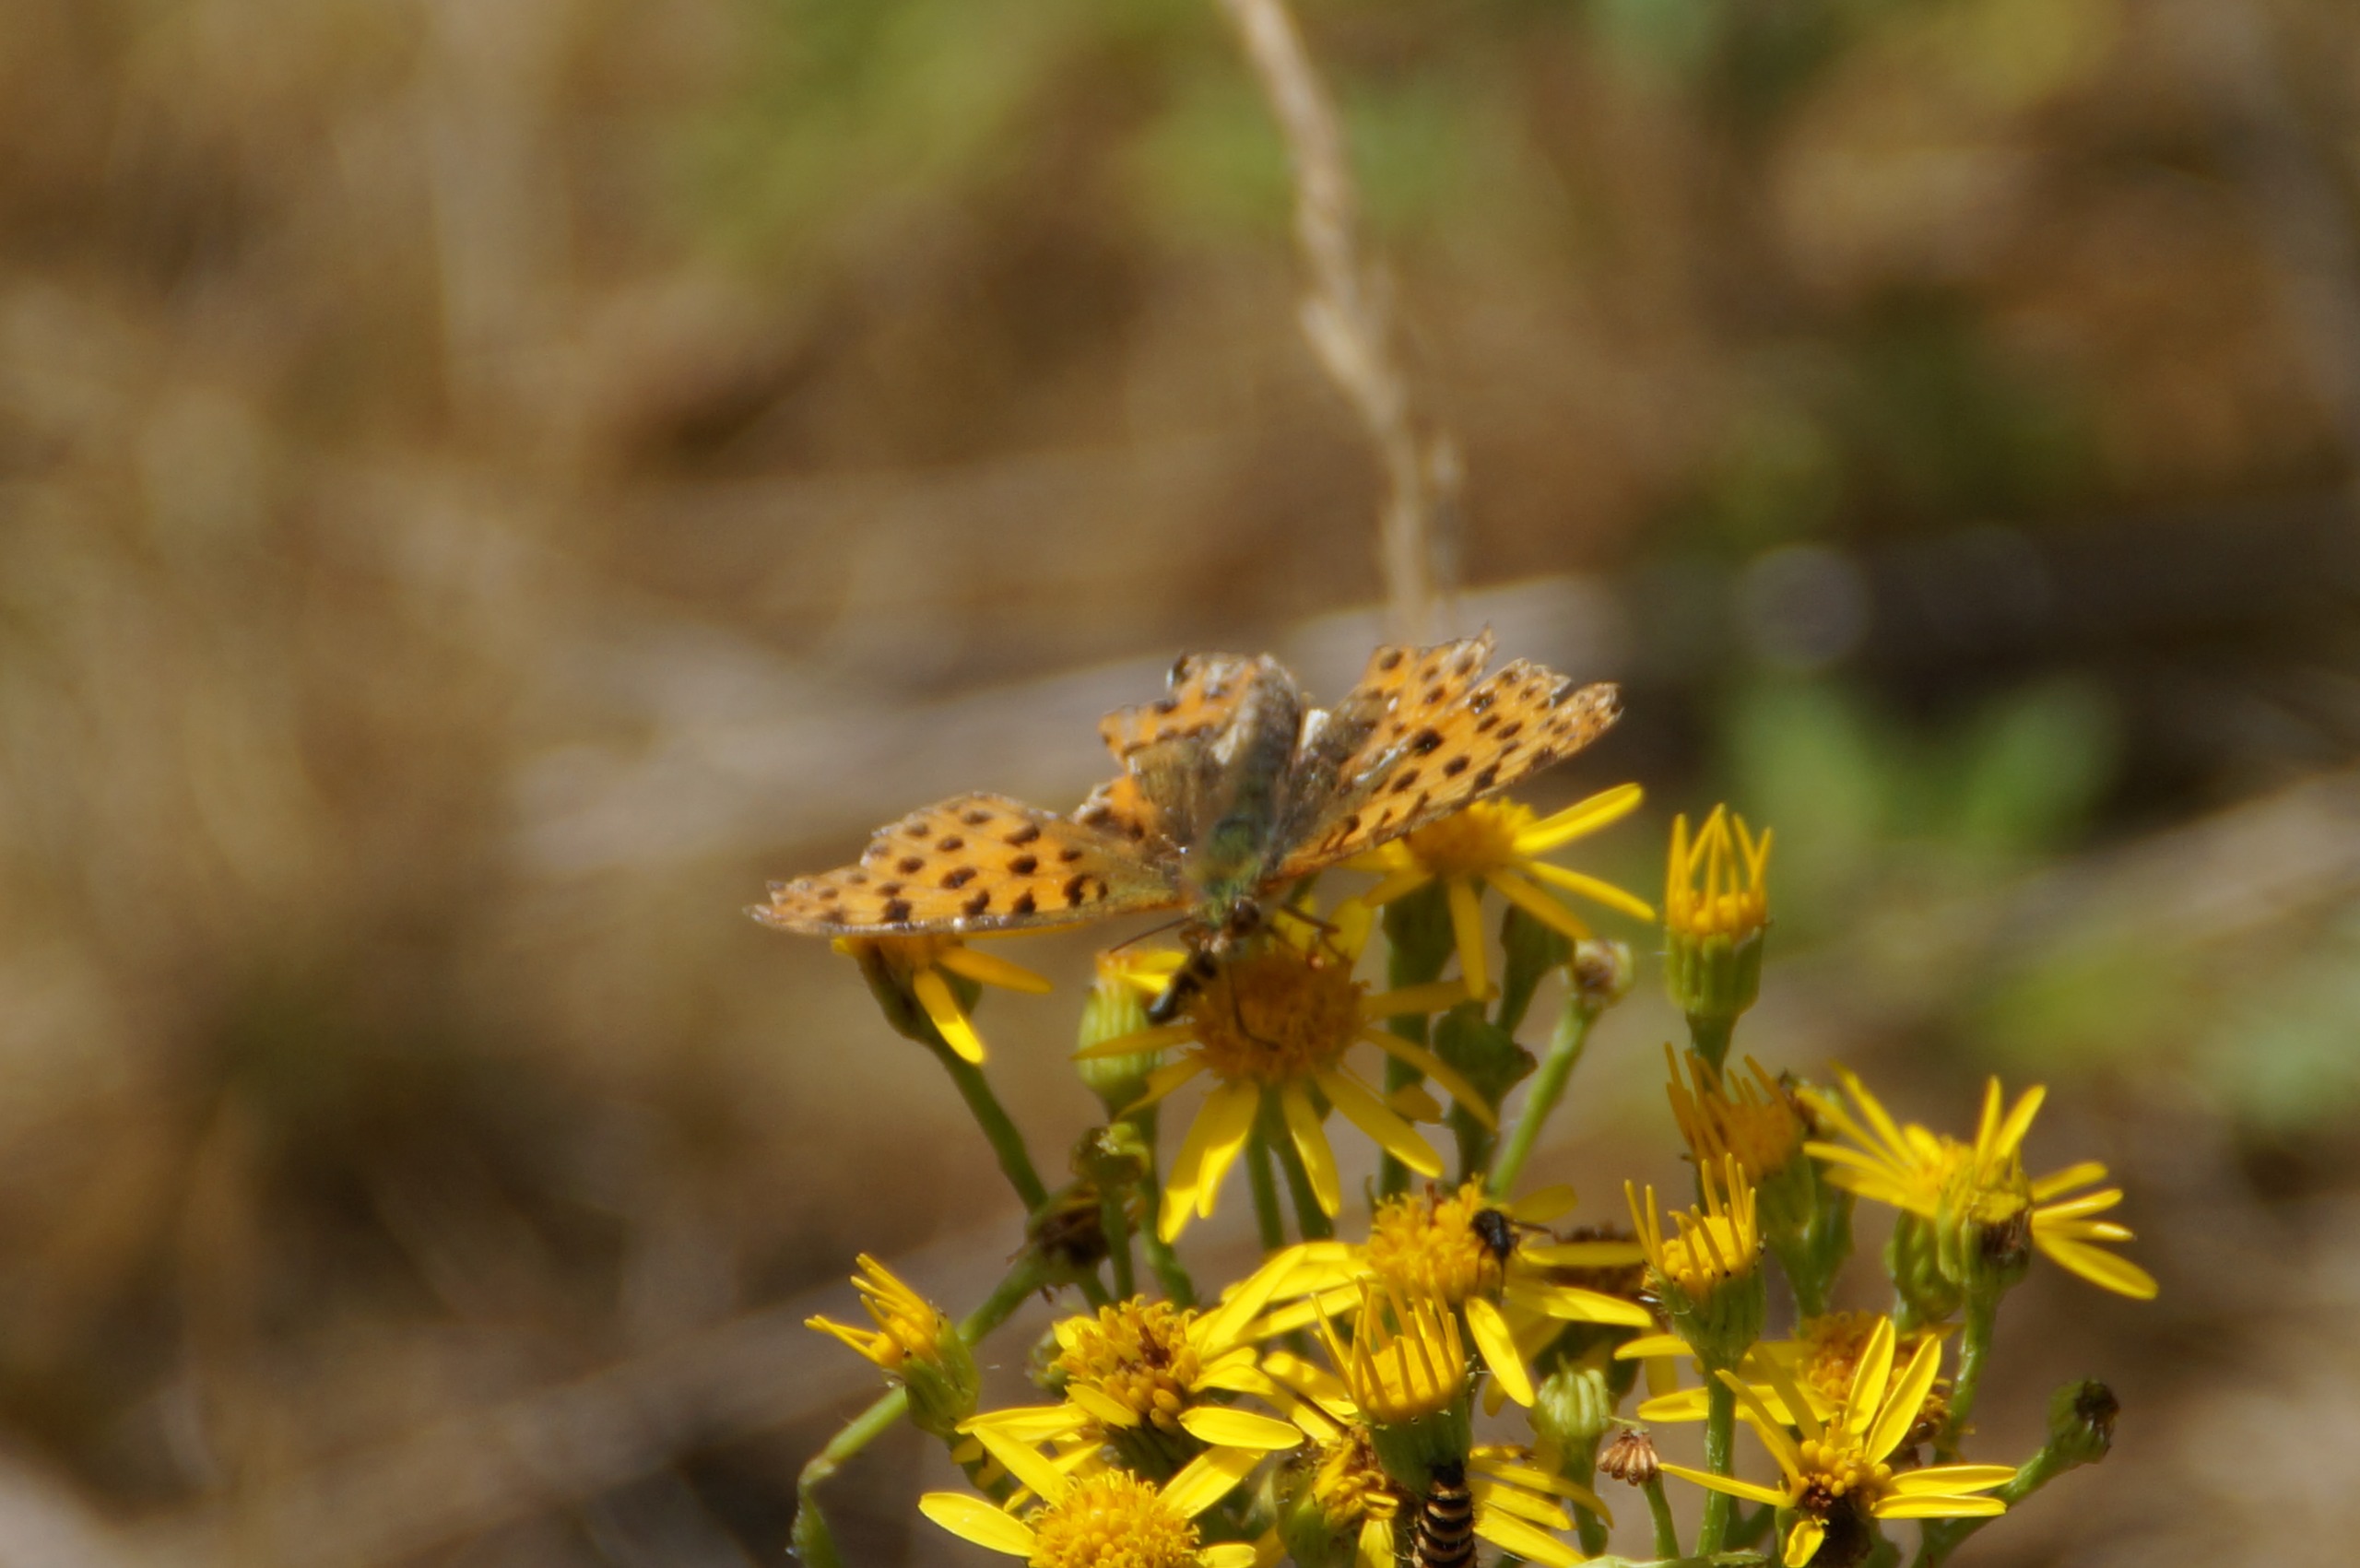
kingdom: Animalia
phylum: Arthropoda
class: Insecta
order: Lepidoptera
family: Nymphalidae
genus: Issoria
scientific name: Issoria lathonia
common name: Storplettet perlemorsommerfugl
